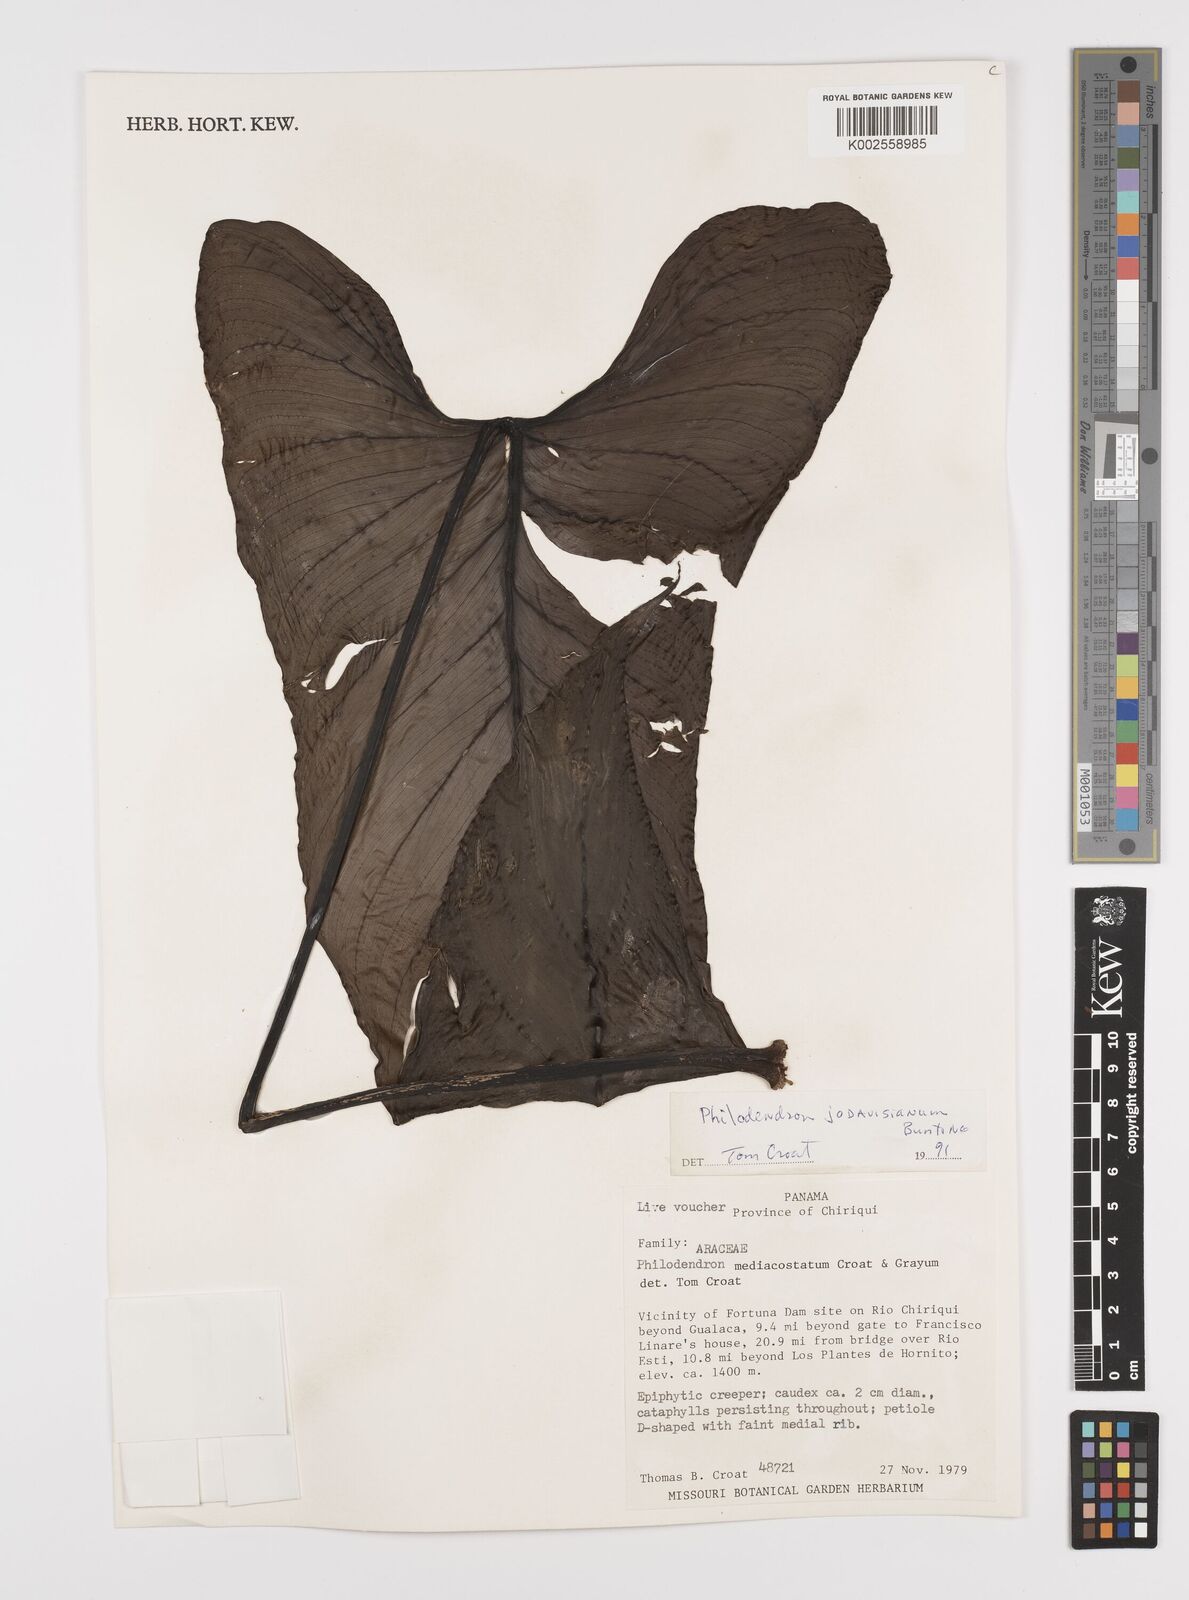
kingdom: Plantae
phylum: Tracheophyta
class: Liliopsida
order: Alismatales
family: Araceae
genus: Philodendron
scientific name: Philodendron jodavisianum
